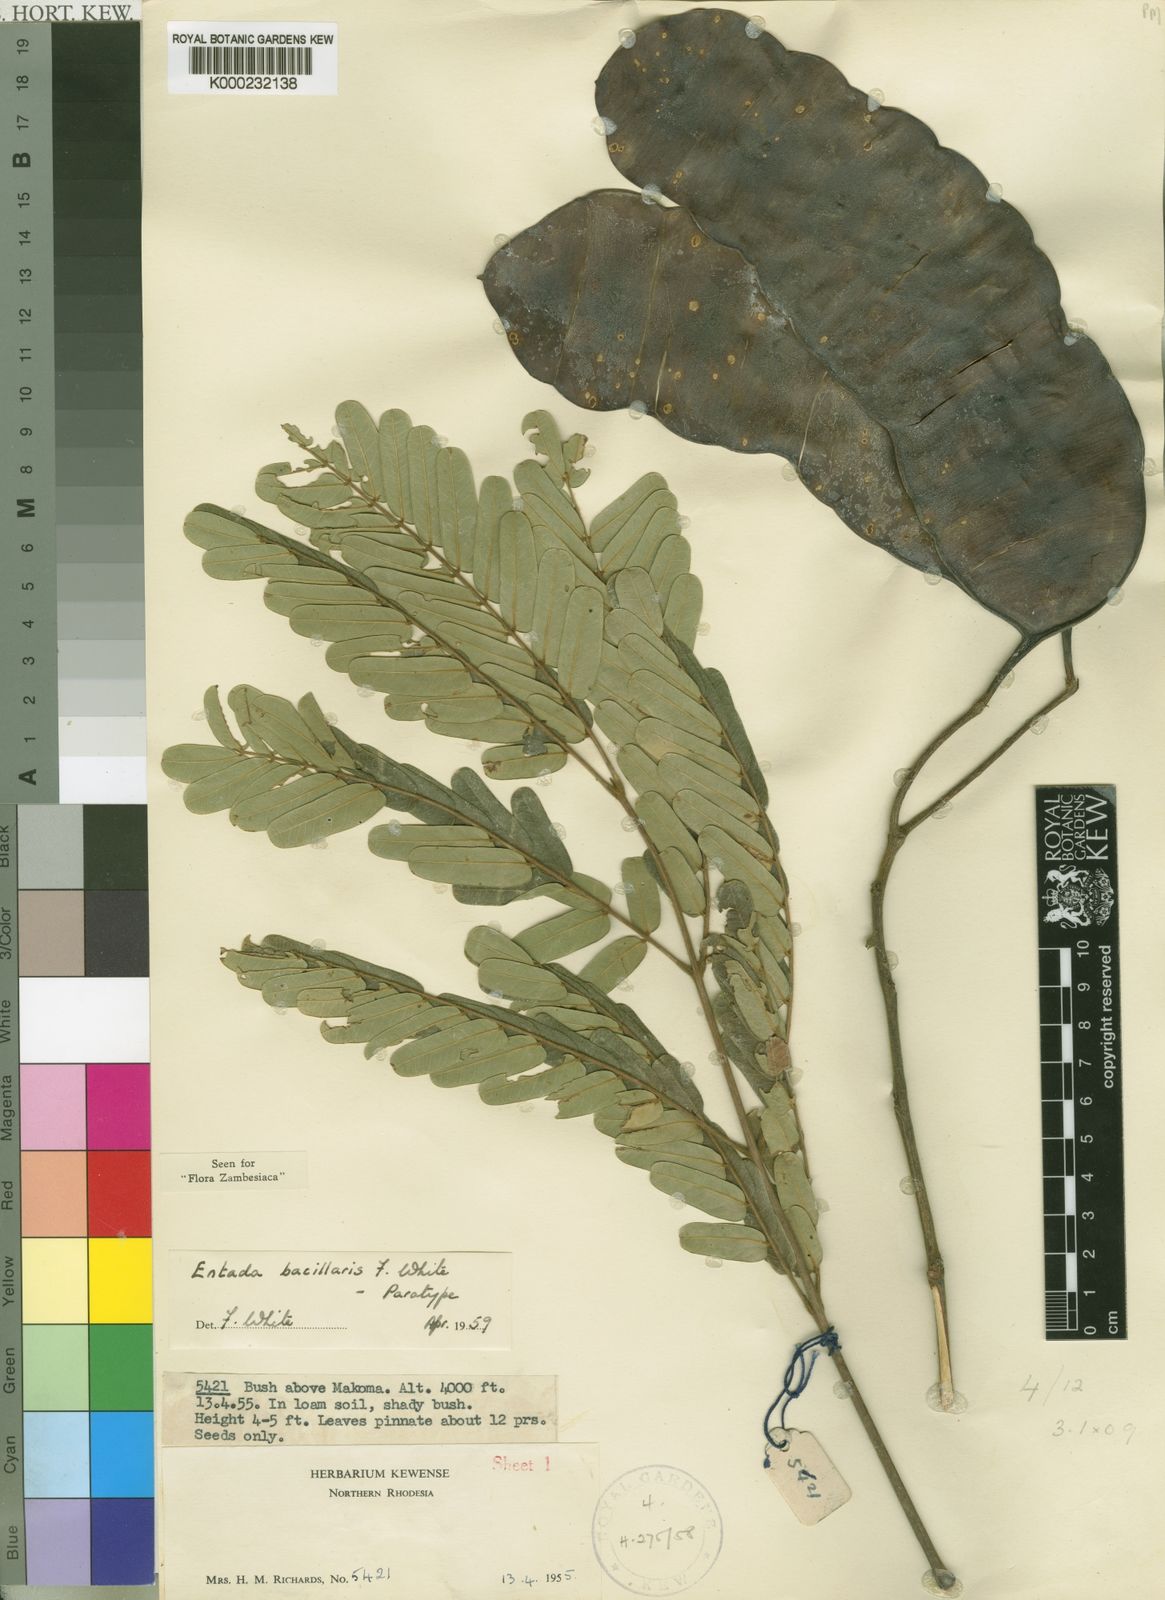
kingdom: Plantae
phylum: Tracheophyta
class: Magnoliopsida
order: Fabales
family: Fabaceae
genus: Entada
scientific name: Entada bacillaris
